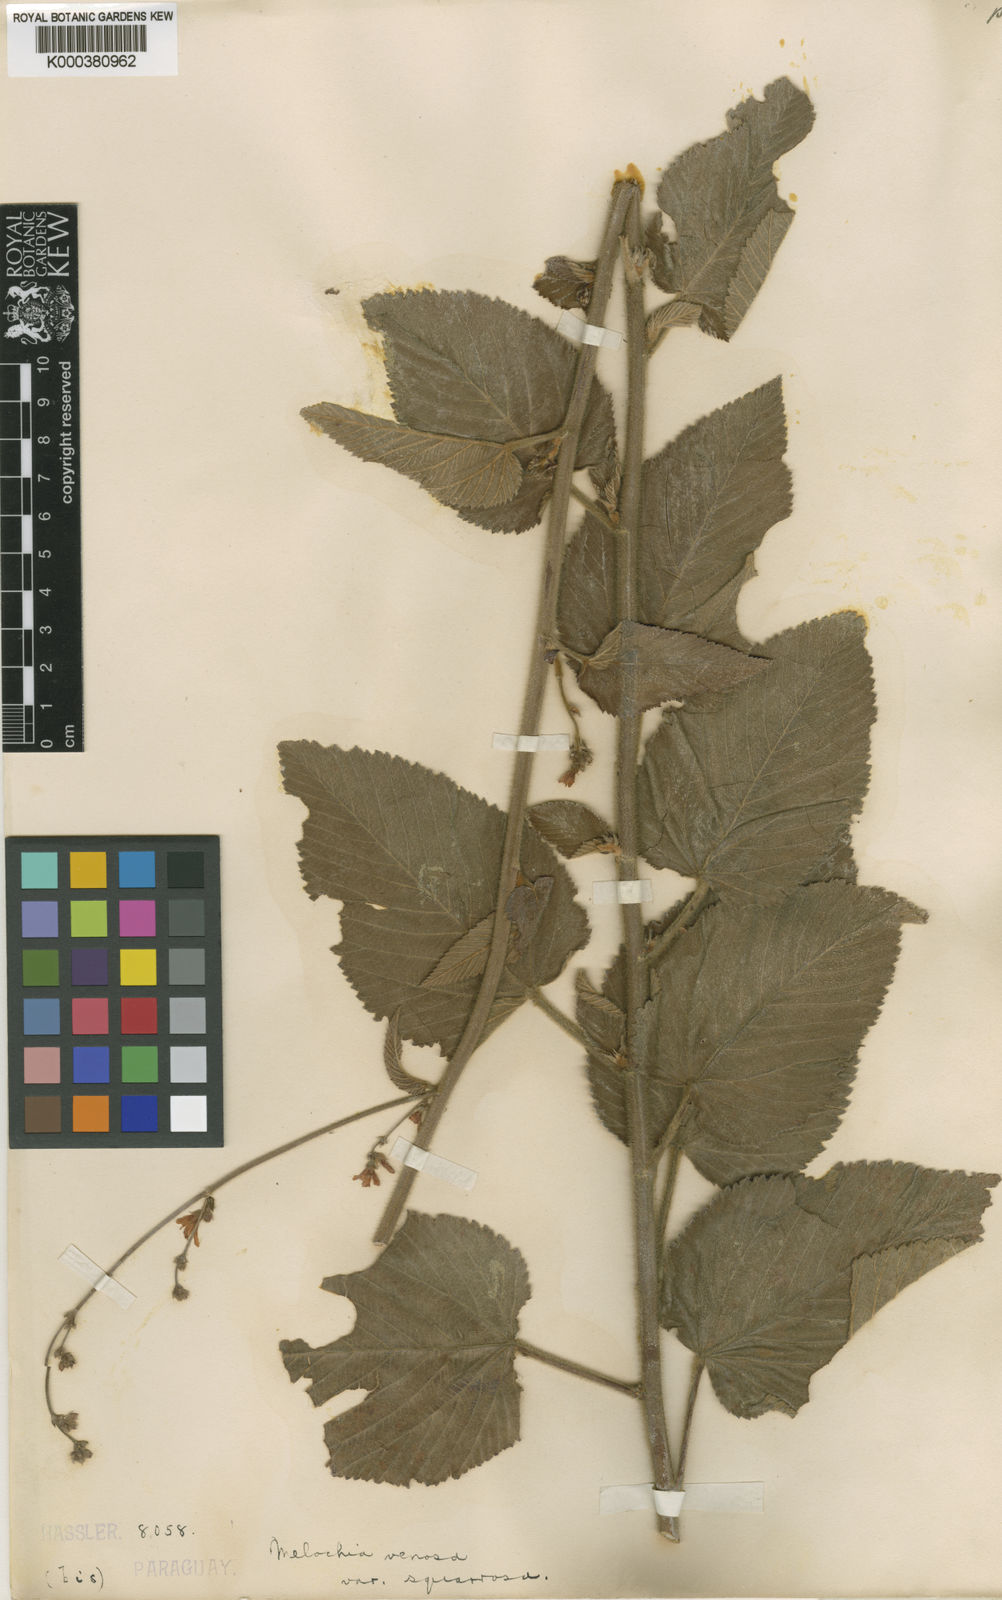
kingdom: Plantae
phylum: Tracheophyta
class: Magnoliopsida
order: Malvales
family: Malvaceae
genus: Melochia
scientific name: Melochia pilosa
